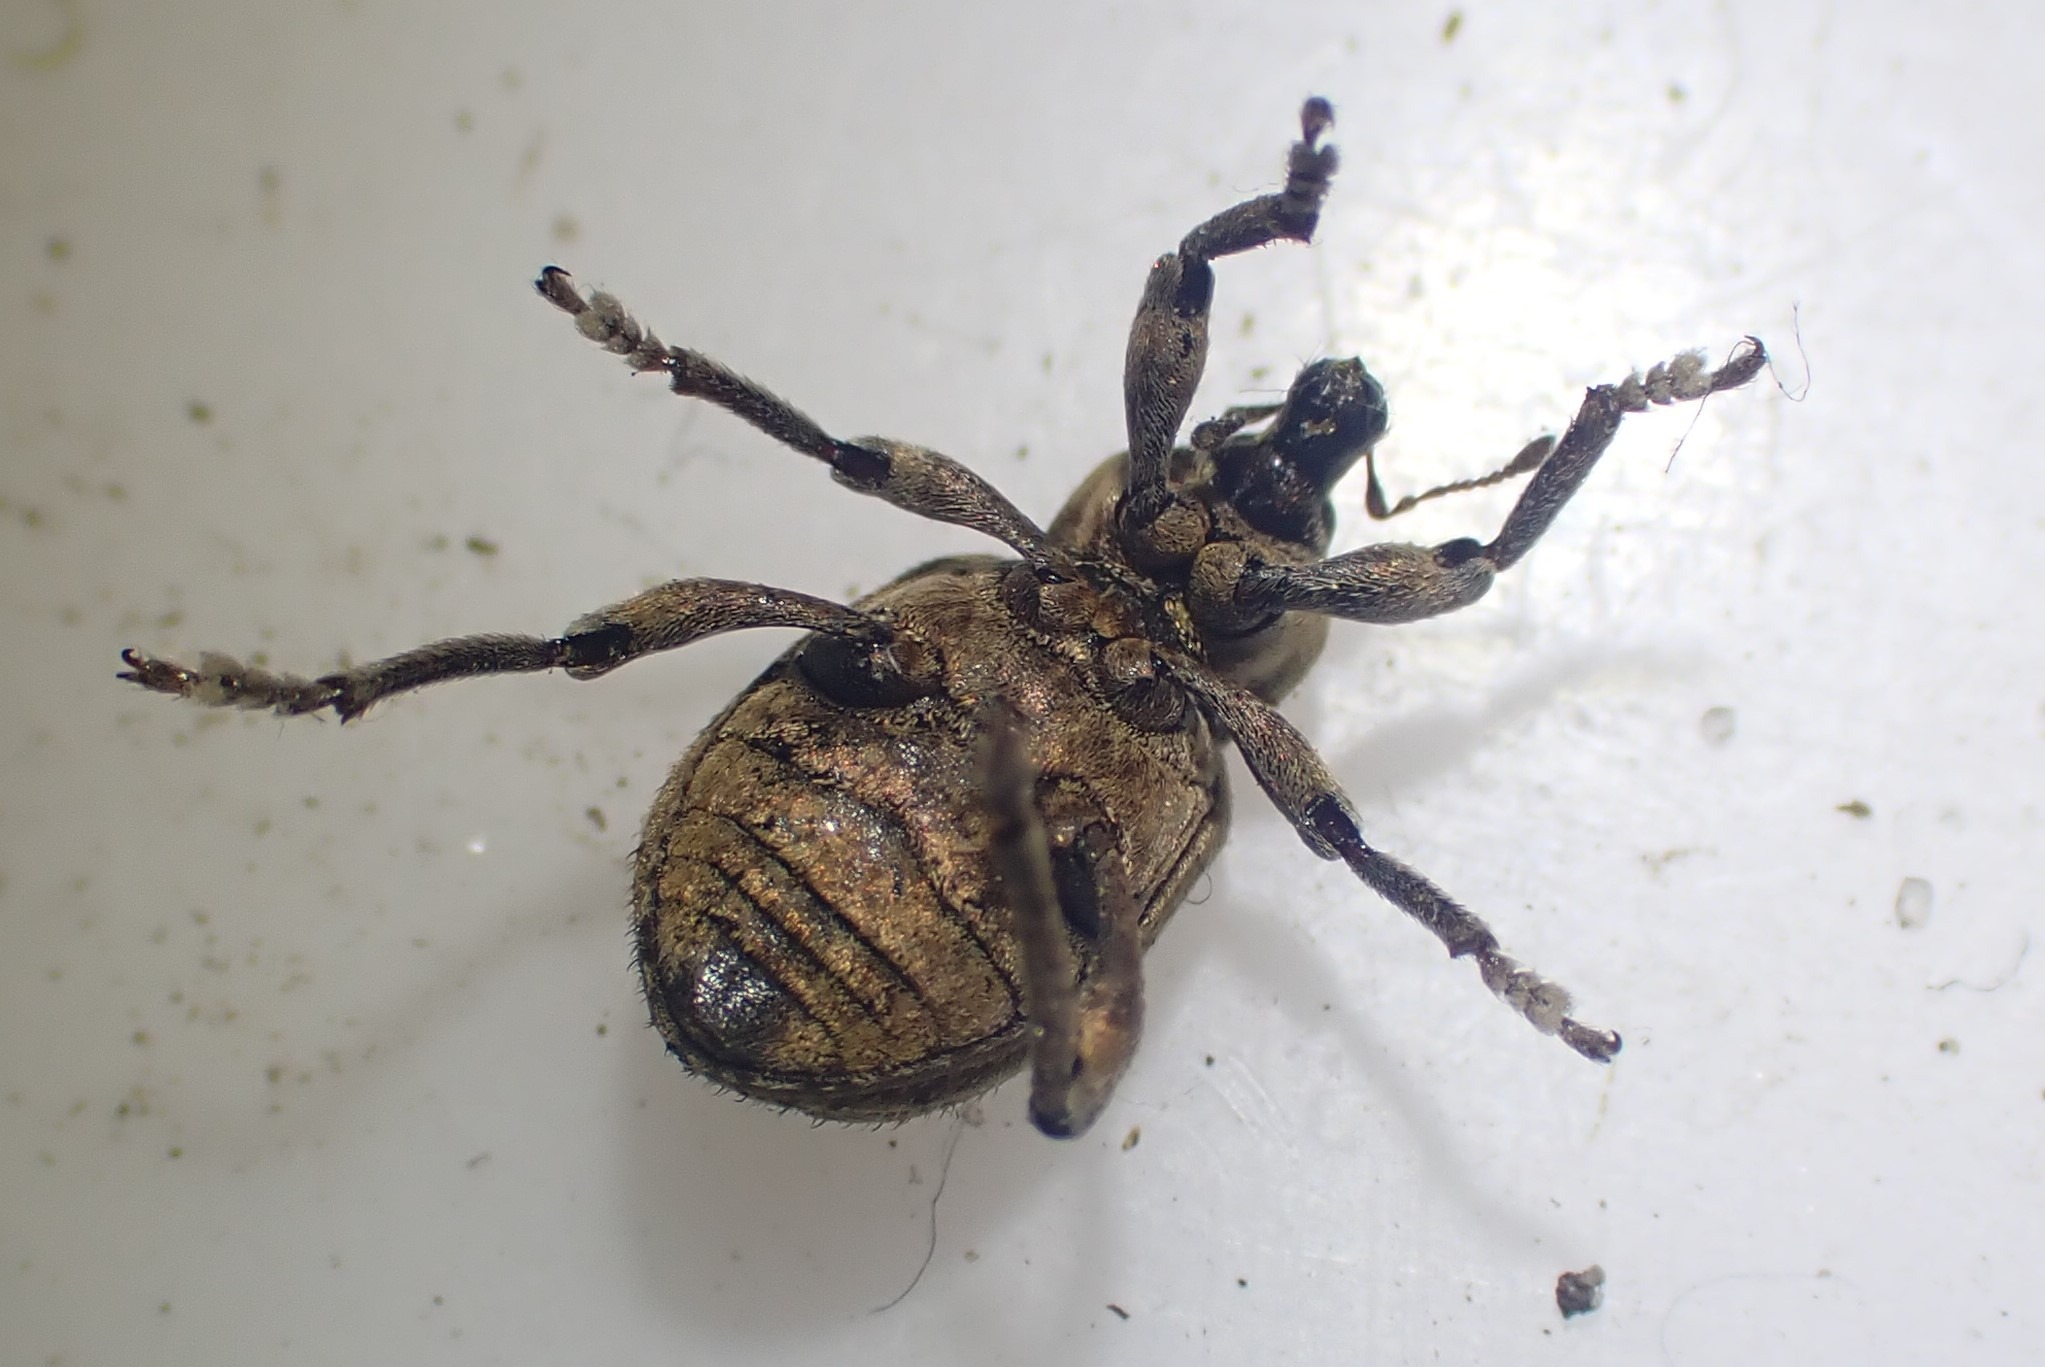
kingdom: Animalia
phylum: Arthropoda
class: Insecta
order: Coleoptera
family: Curculionidae
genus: Brachypera
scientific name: Brachypera zoilus
